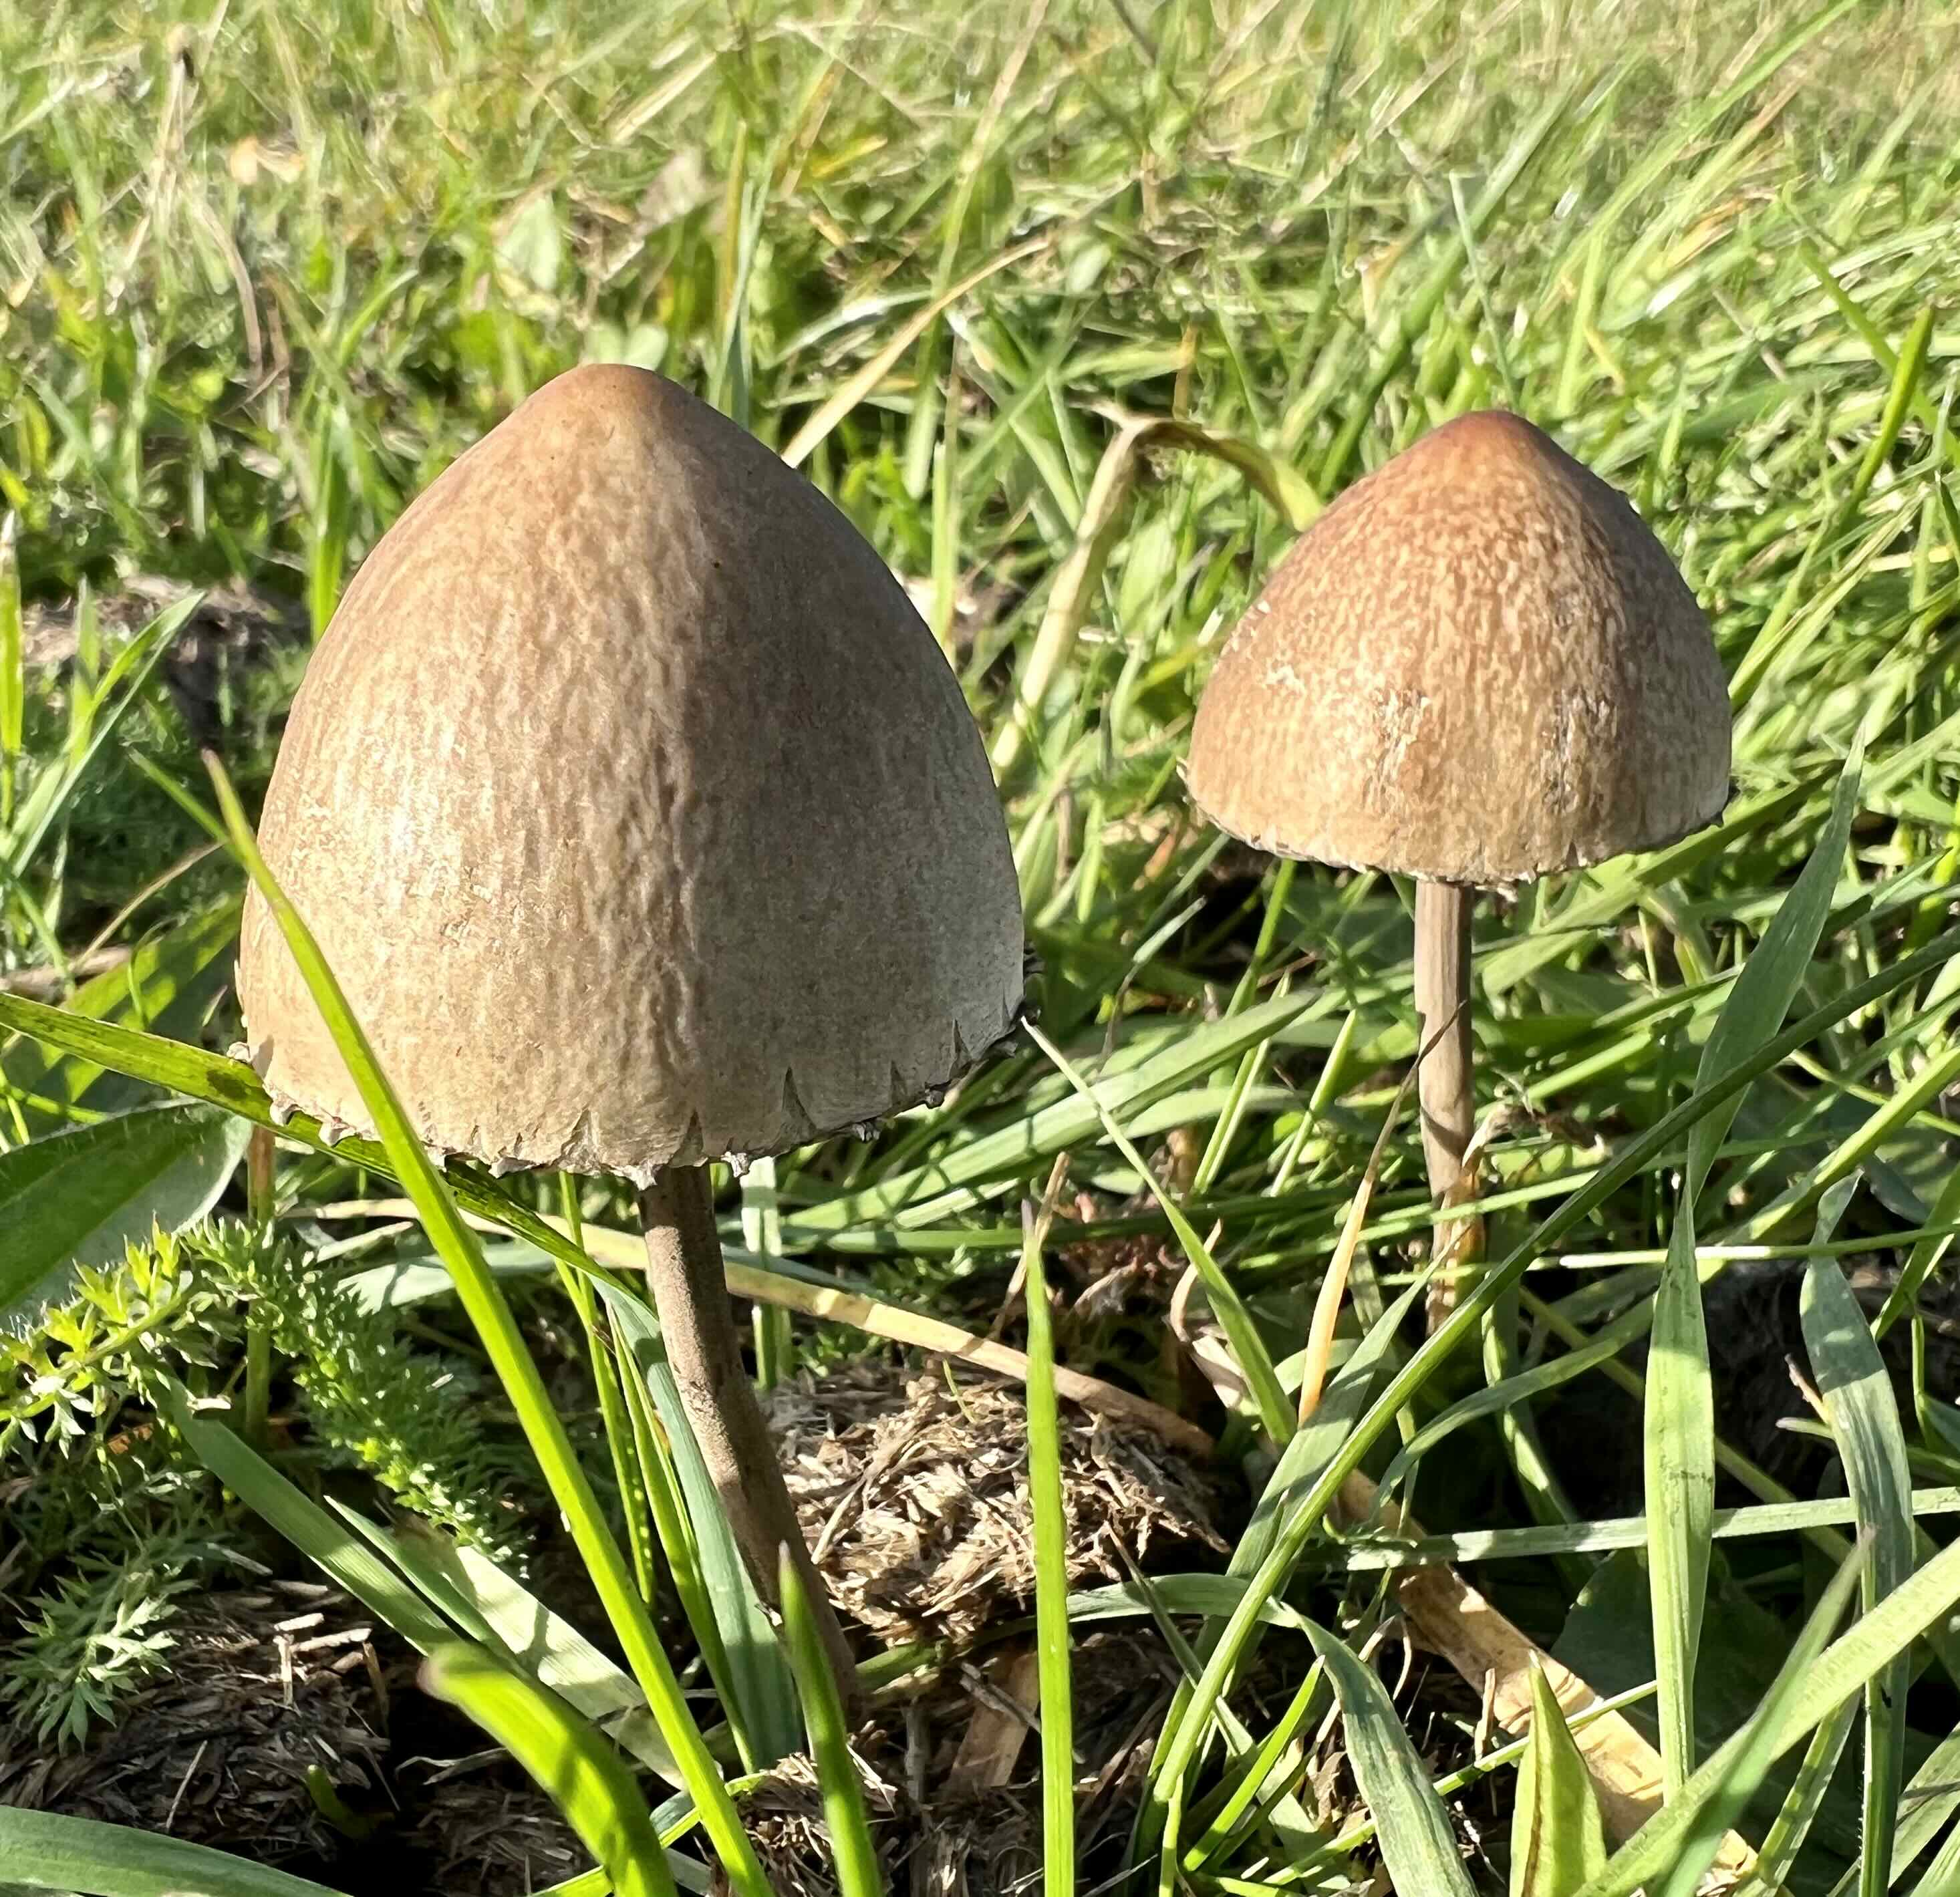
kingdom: Fungi
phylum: Basidiomycota
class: Agaricomycetes
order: Agaricales
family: Bolbitiaceae
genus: Panaeolus
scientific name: Panaeolus papilionaceus
